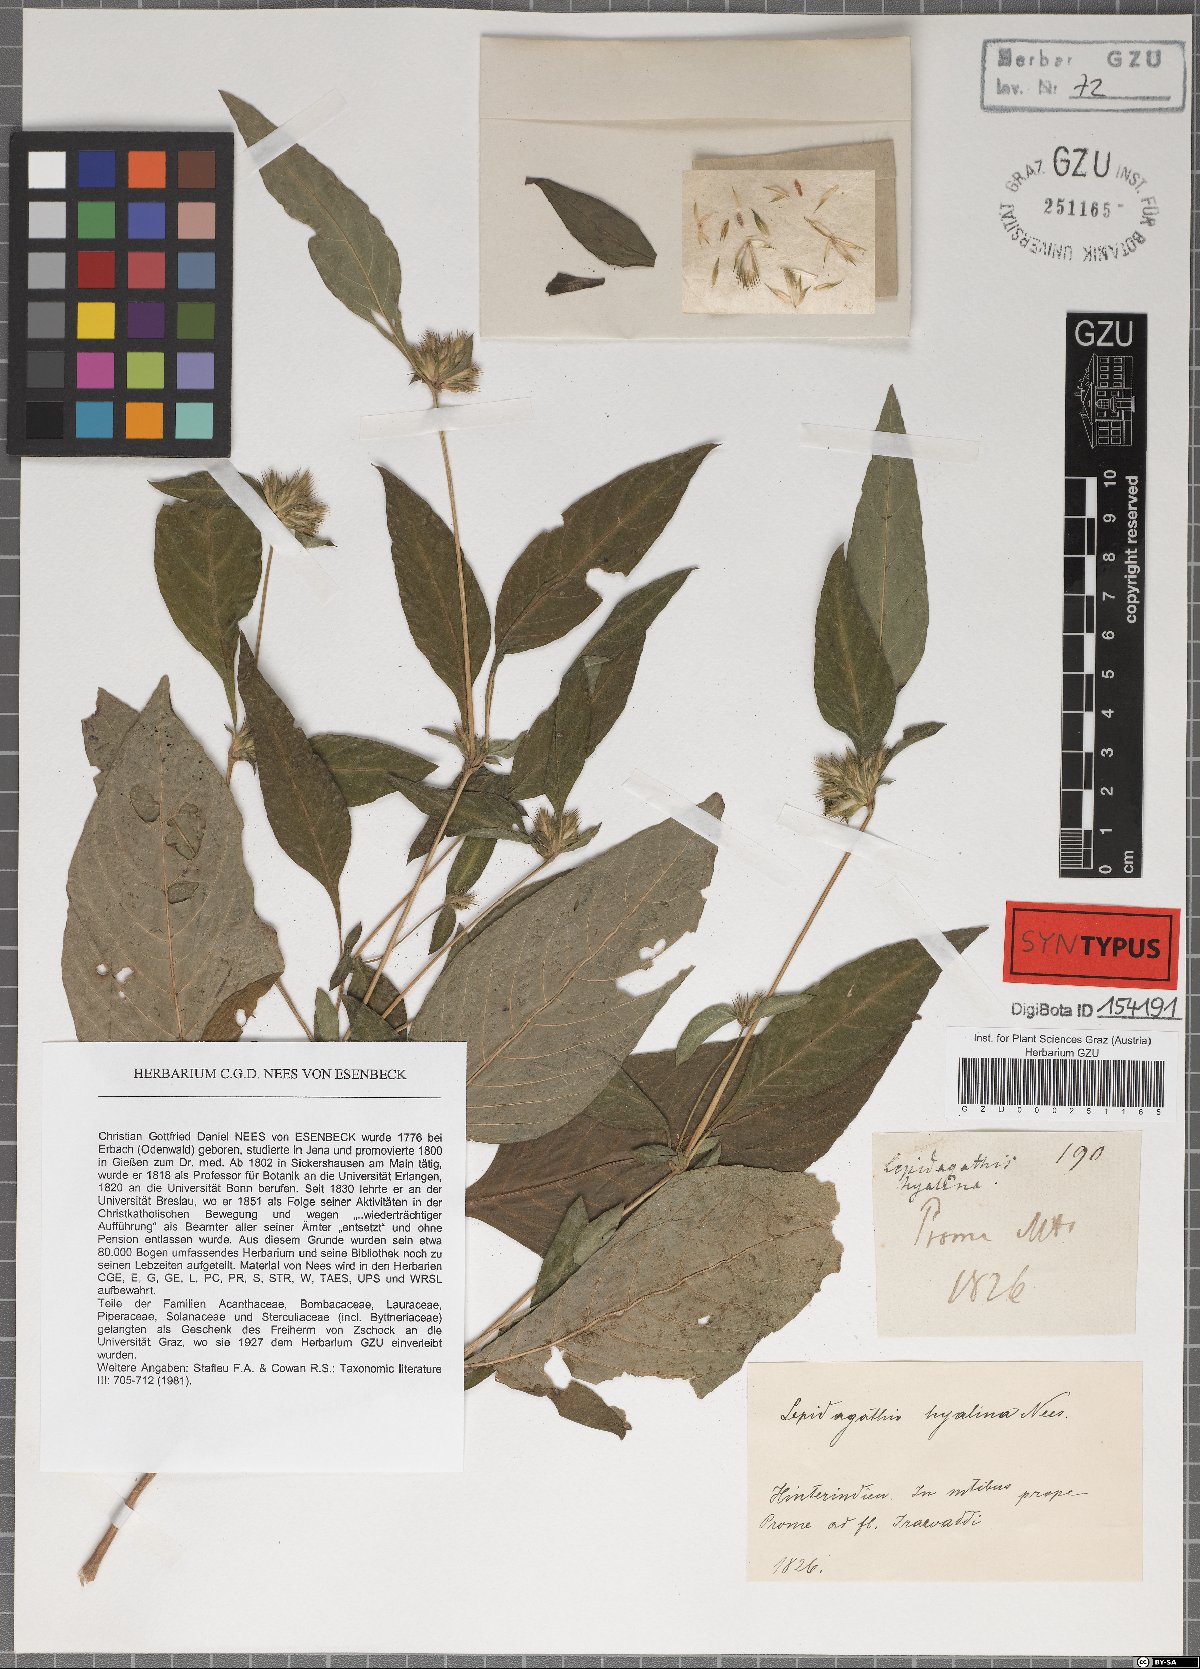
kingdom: Plantae
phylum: Tracheophyta
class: Magnoliopsida
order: Lamiales
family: Acanthaceae
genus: Lepidagathis
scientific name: Lepidagathis incurva
